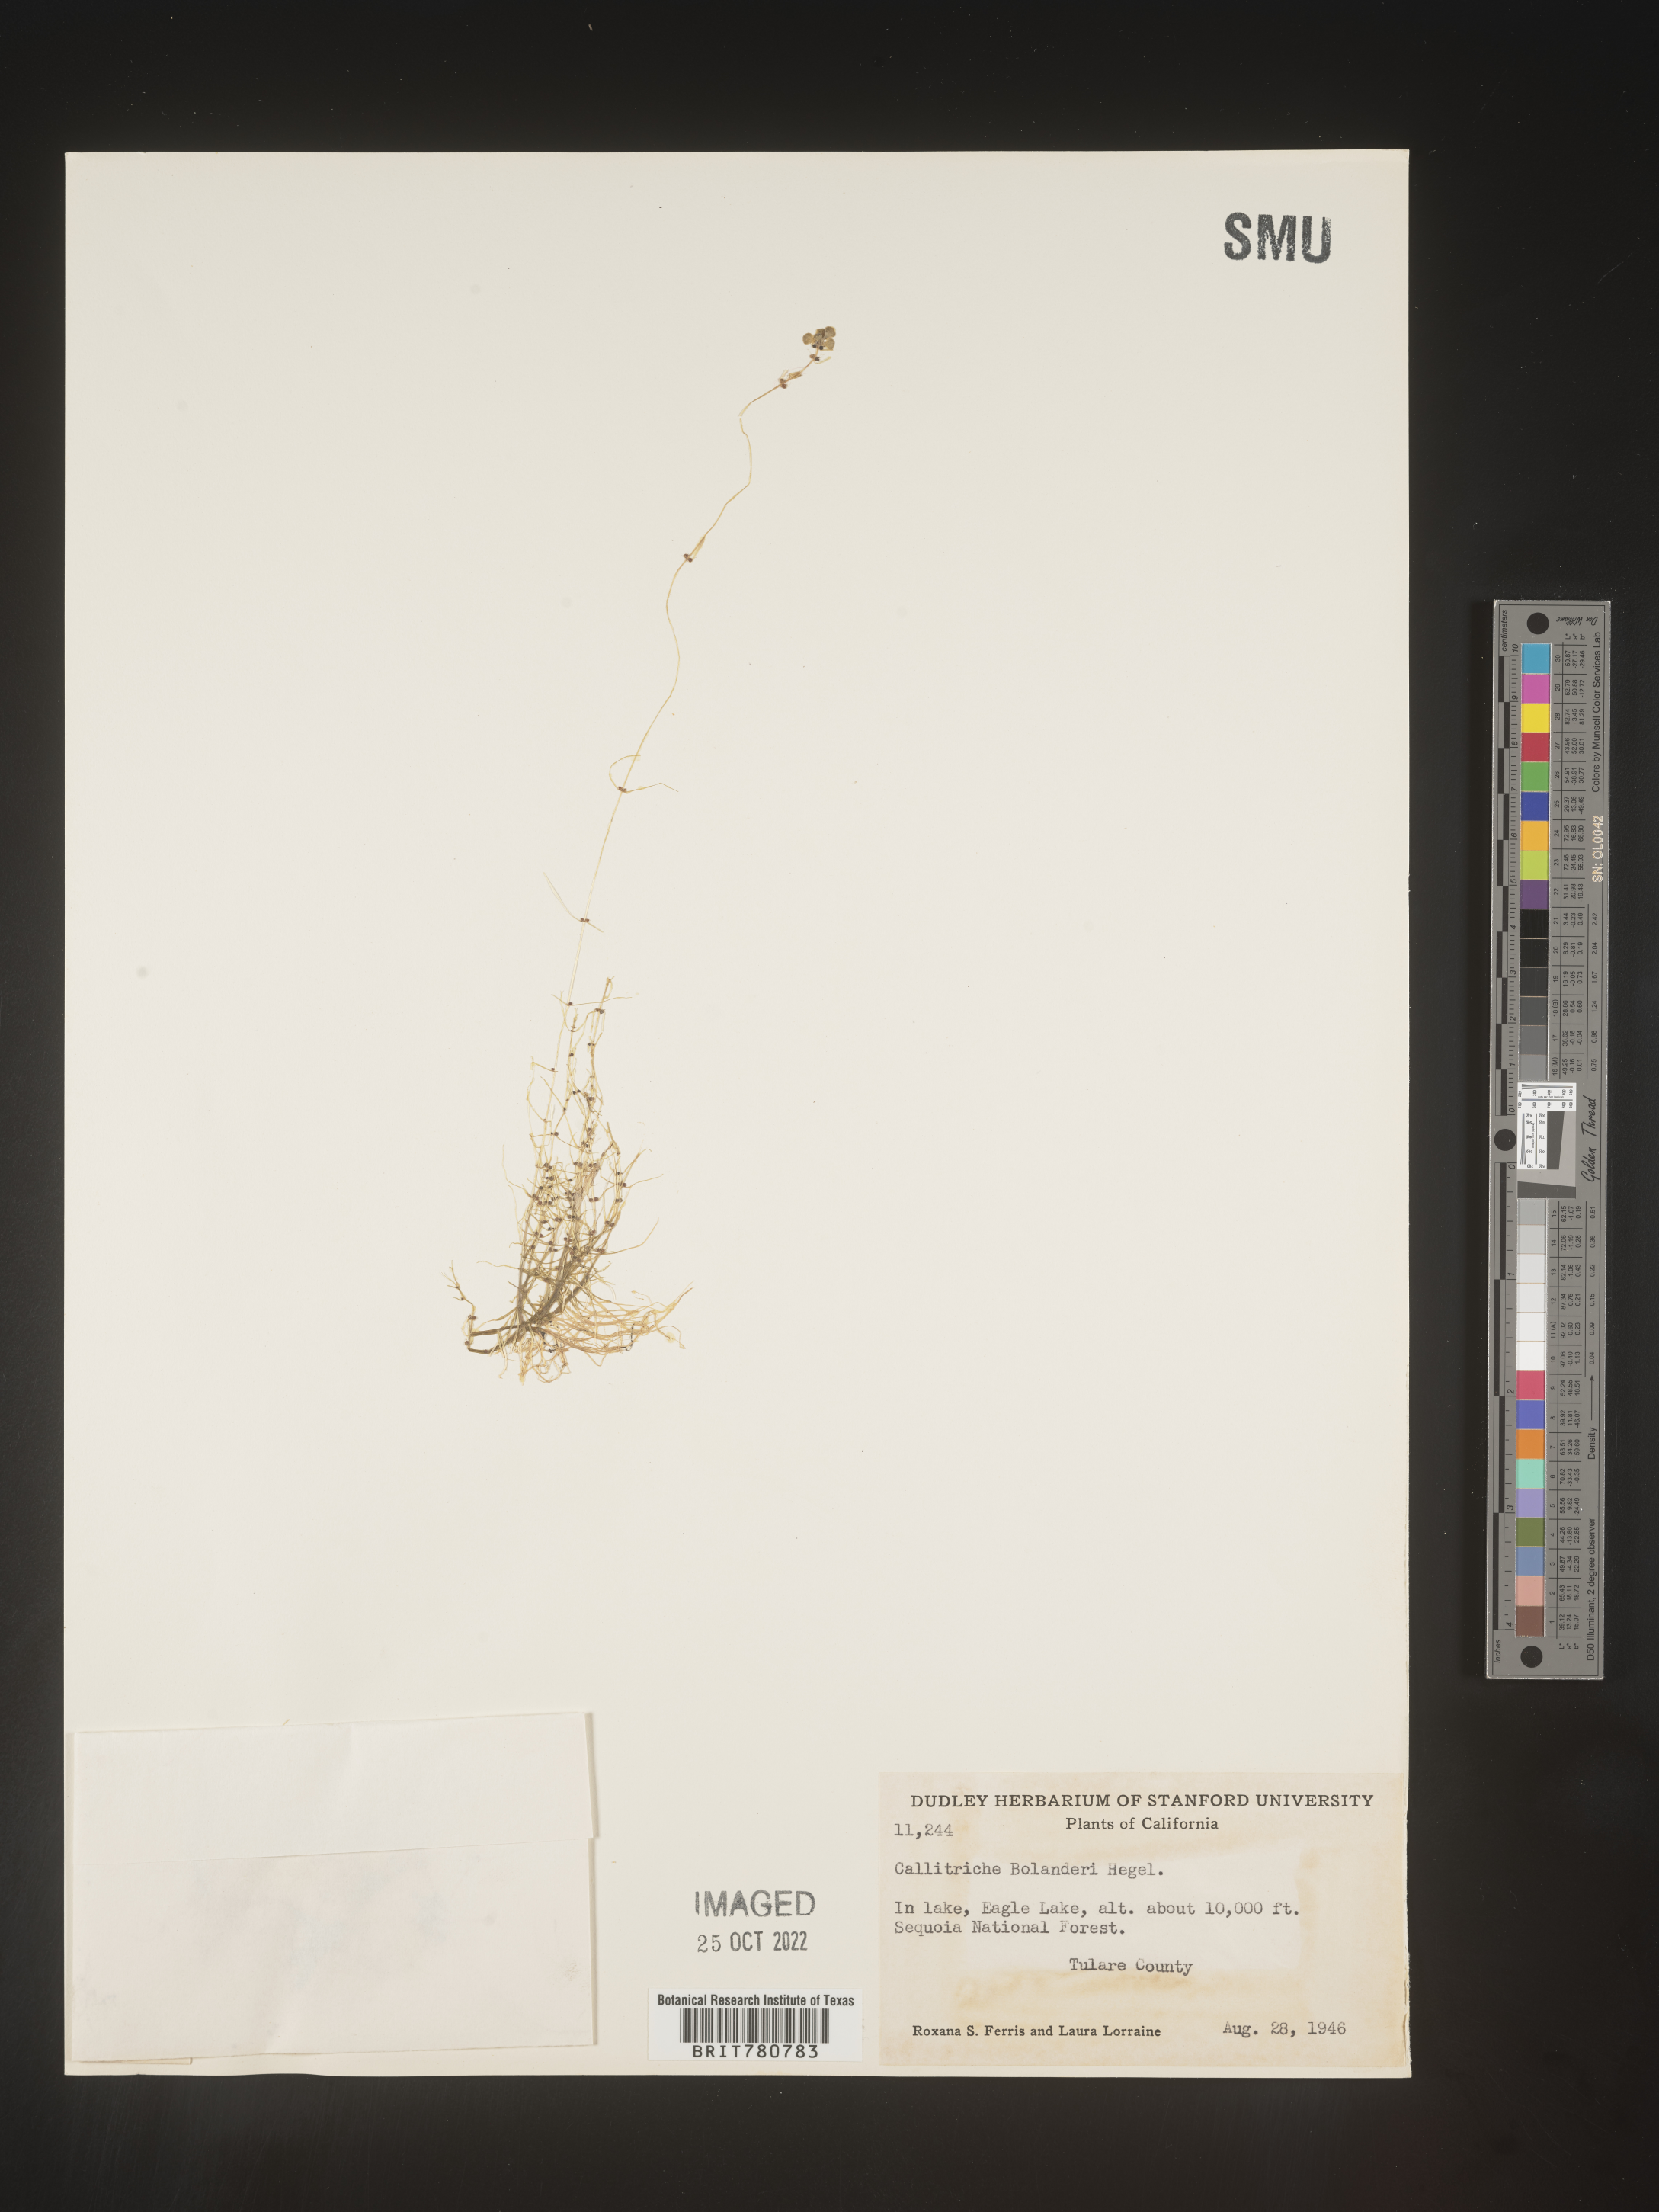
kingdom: Plantae
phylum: Tracheophyta
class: Magnoliopsida
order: Lamiales
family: Plantaginaceae
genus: Callitriche
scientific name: Callitriche
